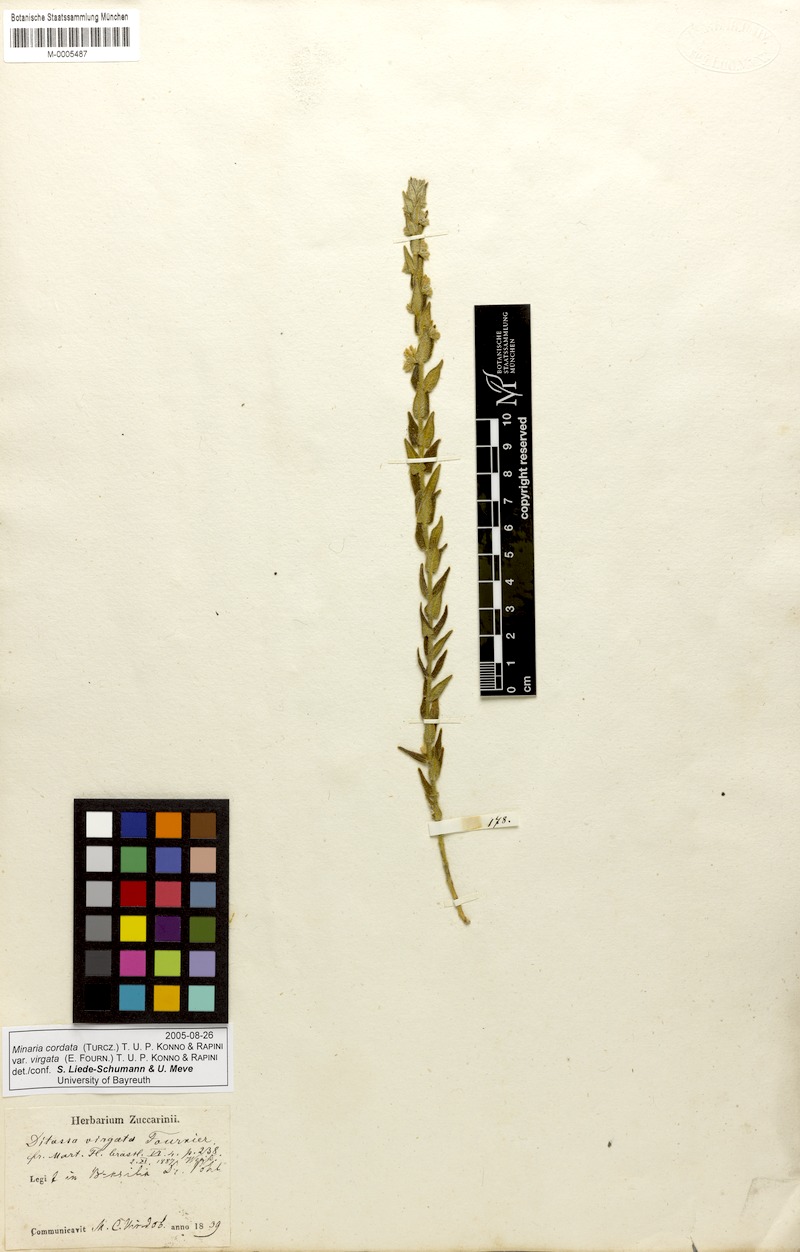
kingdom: Plantae
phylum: Tracheophyta
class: Magnoliopsida
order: Gentianales
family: Apocynaceae
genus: Minaria
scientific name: Minaria cordata
